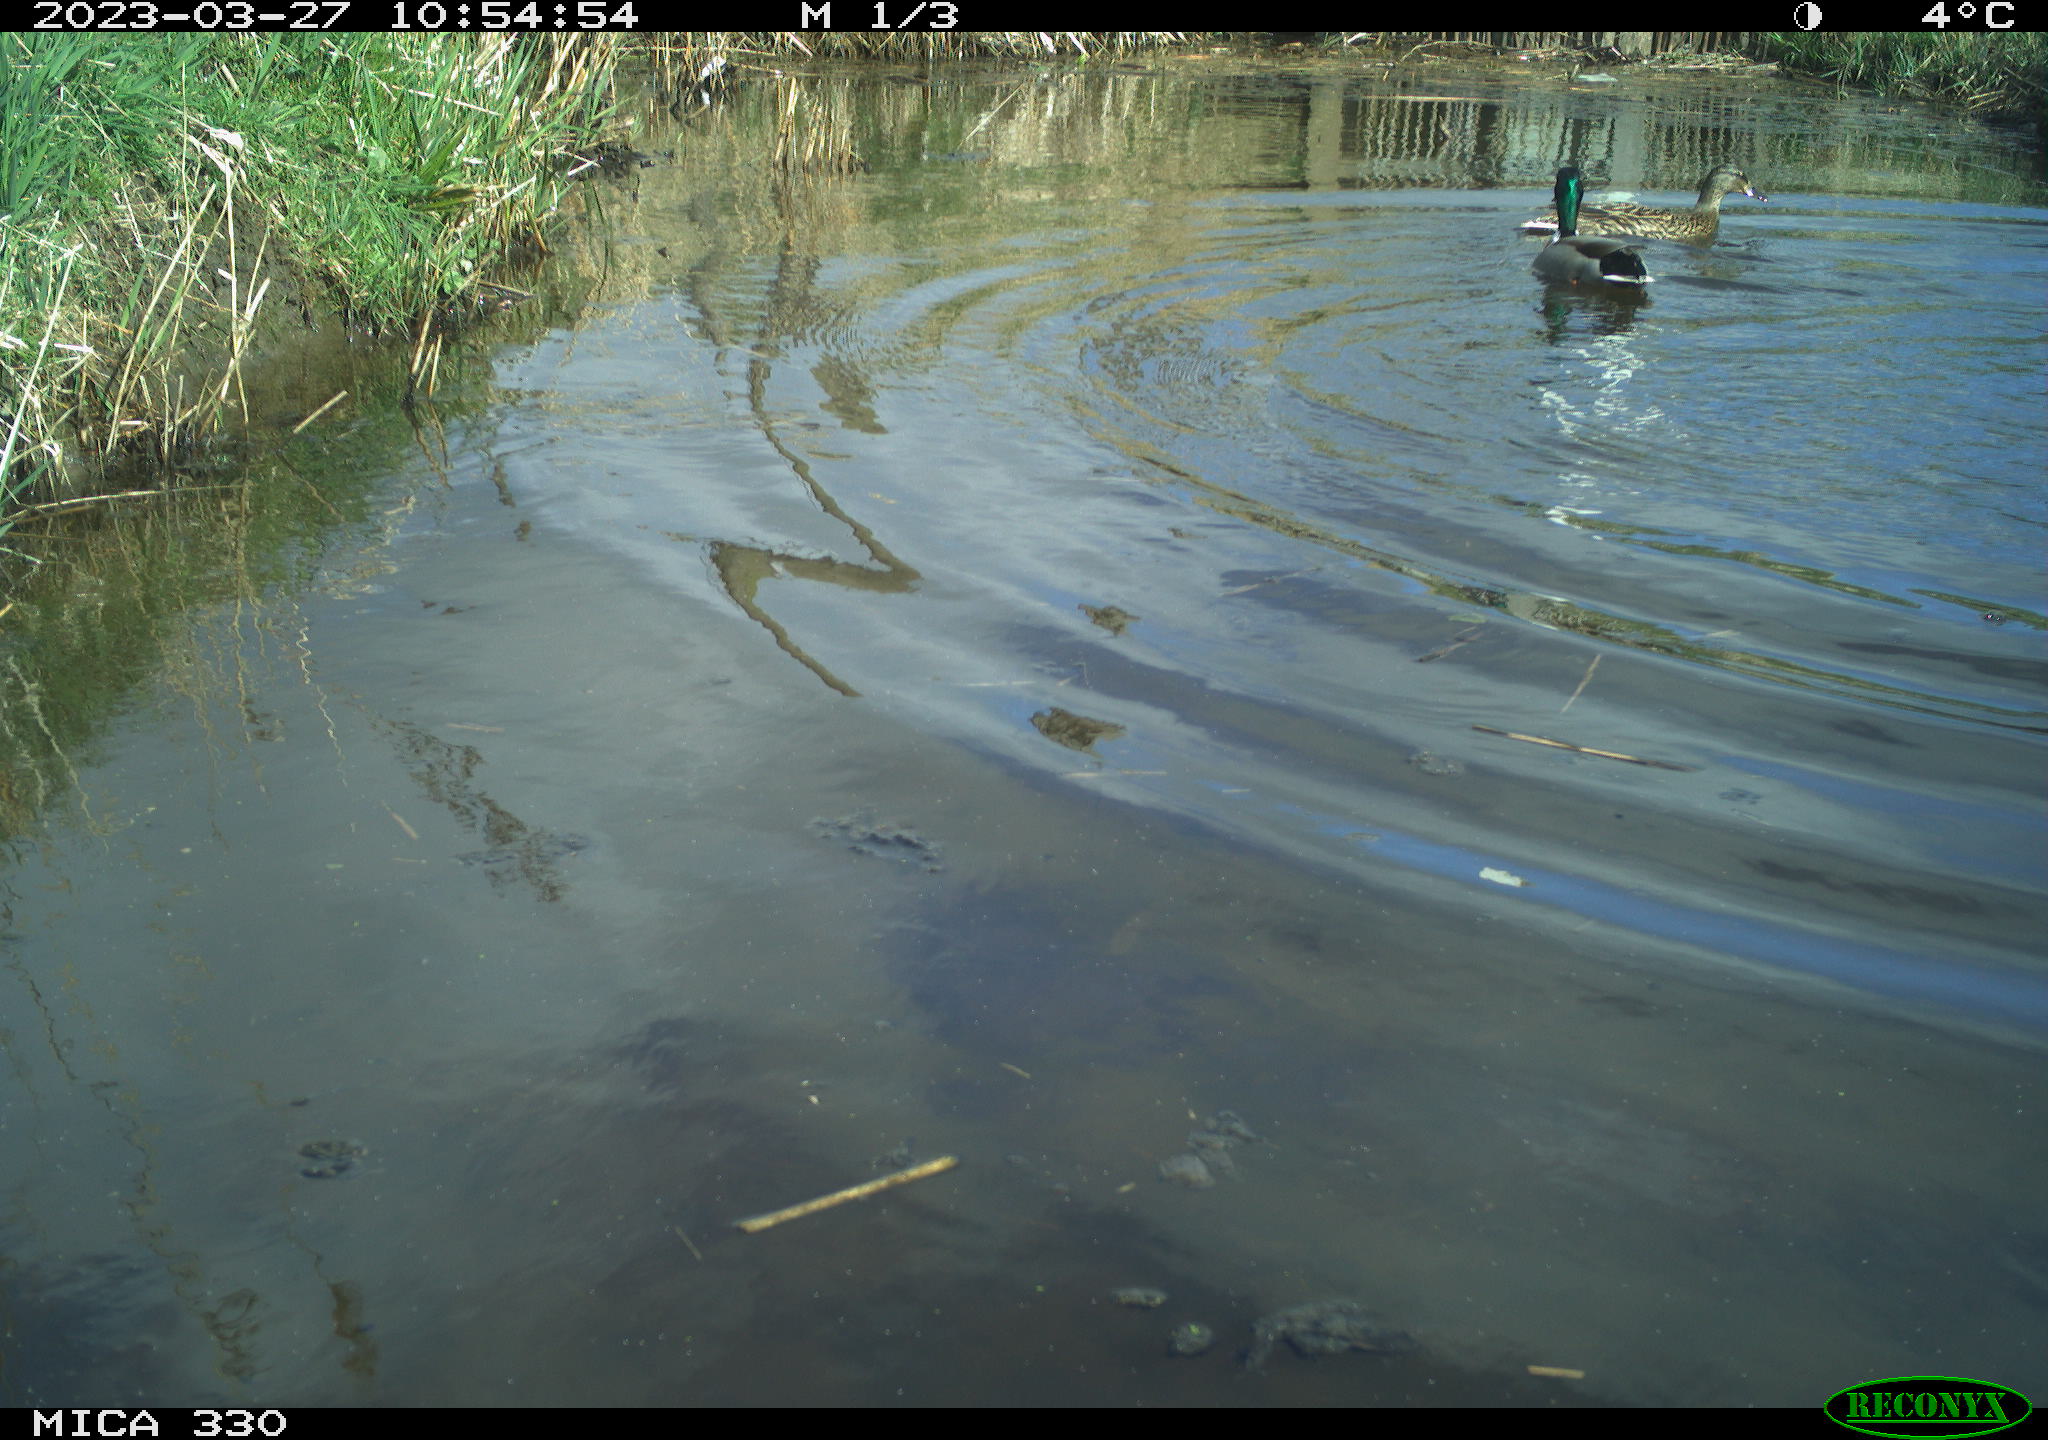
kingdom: Animalia
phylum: Chordata
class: Aves
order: Anseriformes
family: Anatidae
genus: Anas
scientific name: Anas
